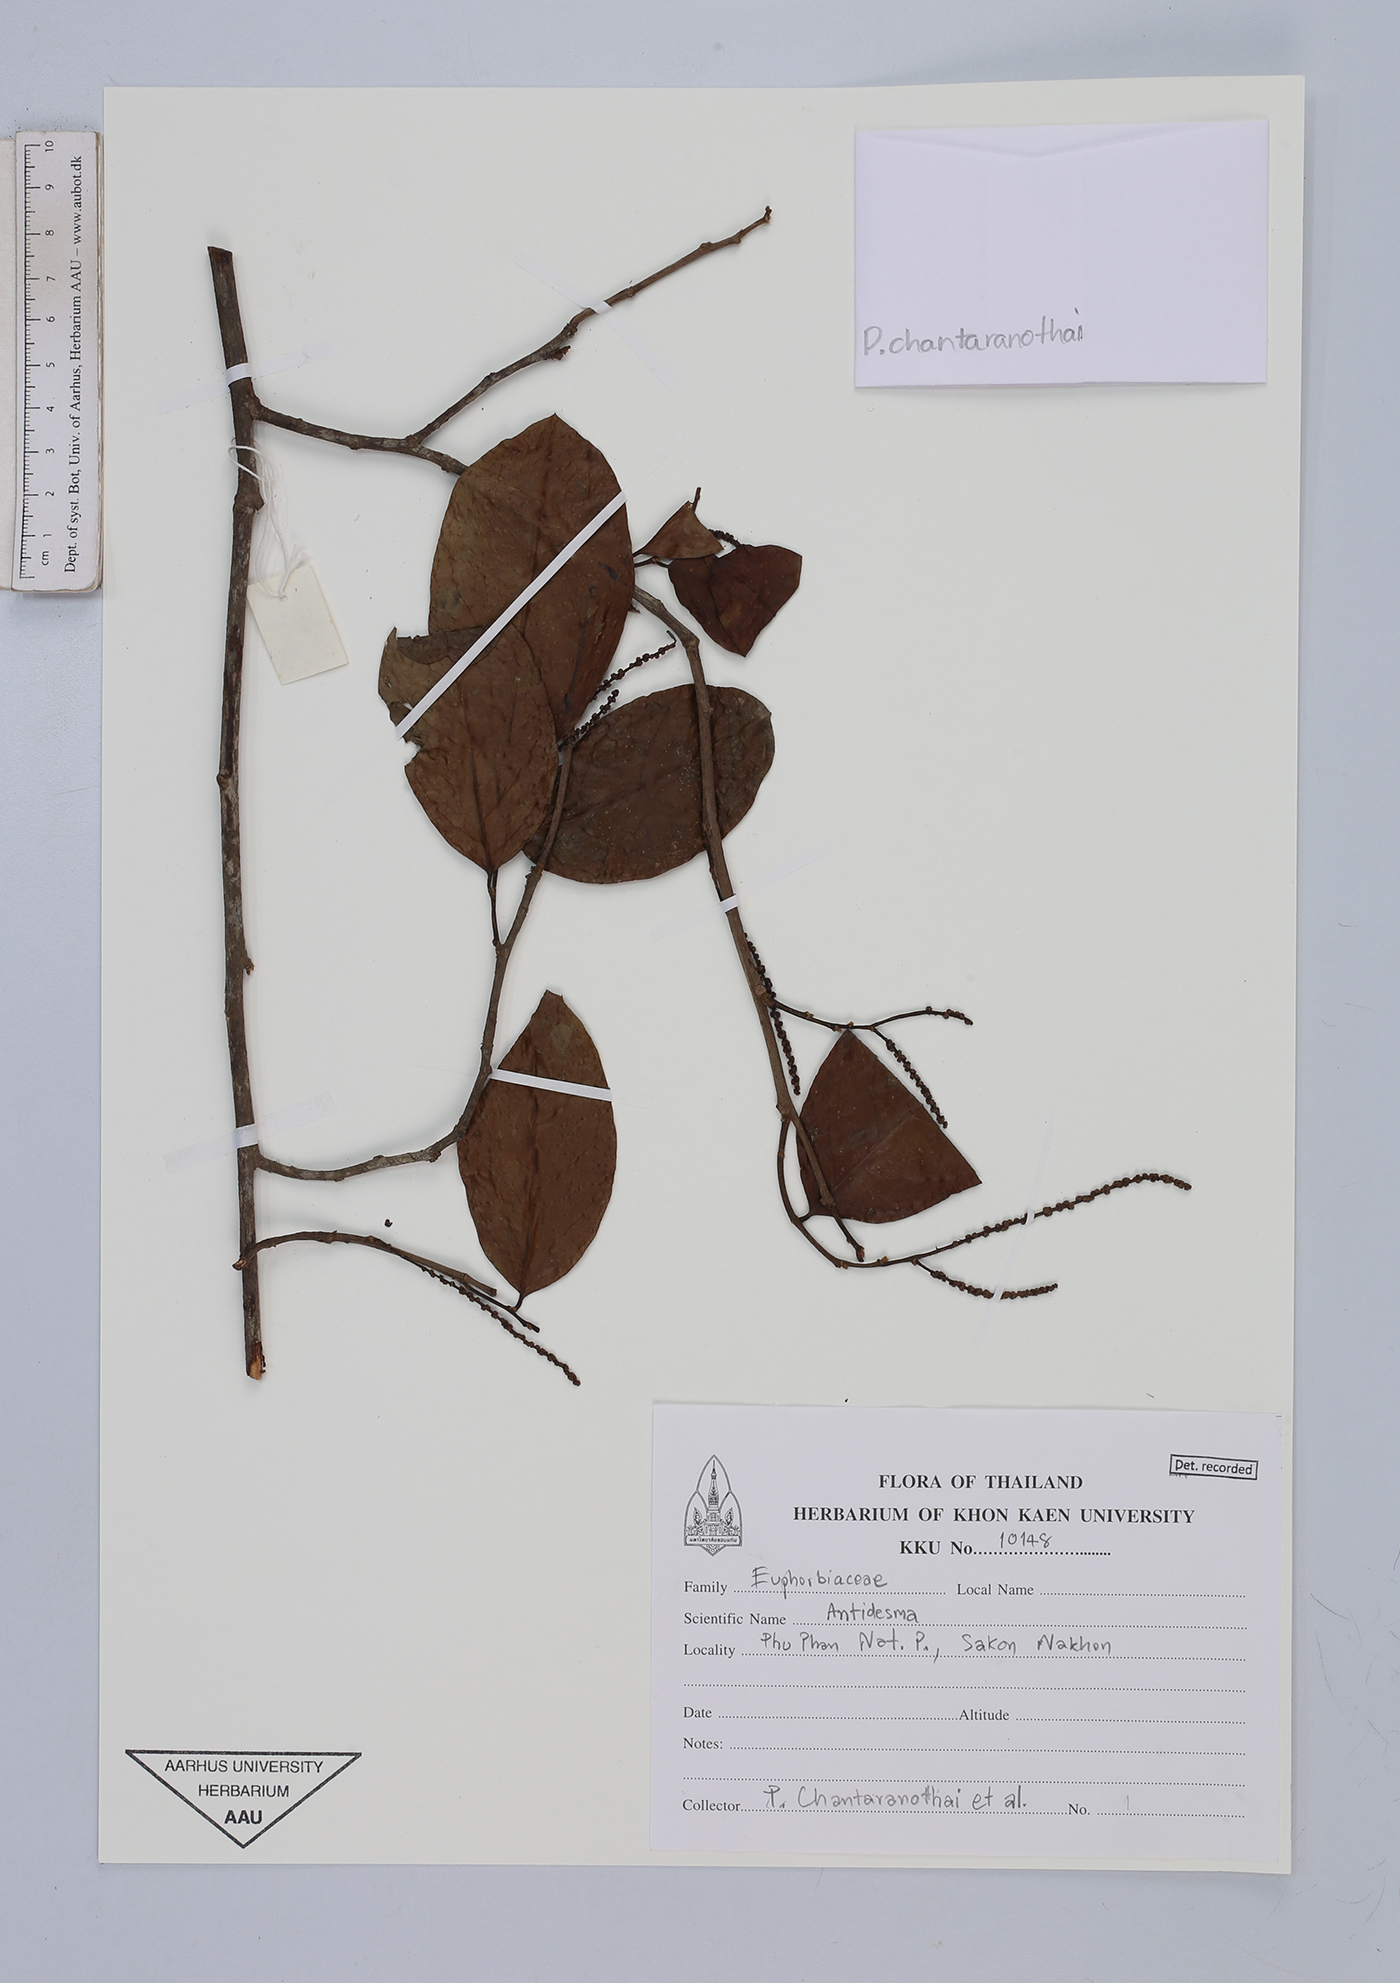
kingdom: Plantae
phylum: Tracheophyta
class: Magnoliopsida
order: Malpighiales
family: Phyllanthaceae
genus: Antidesma
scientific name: Antidesma
